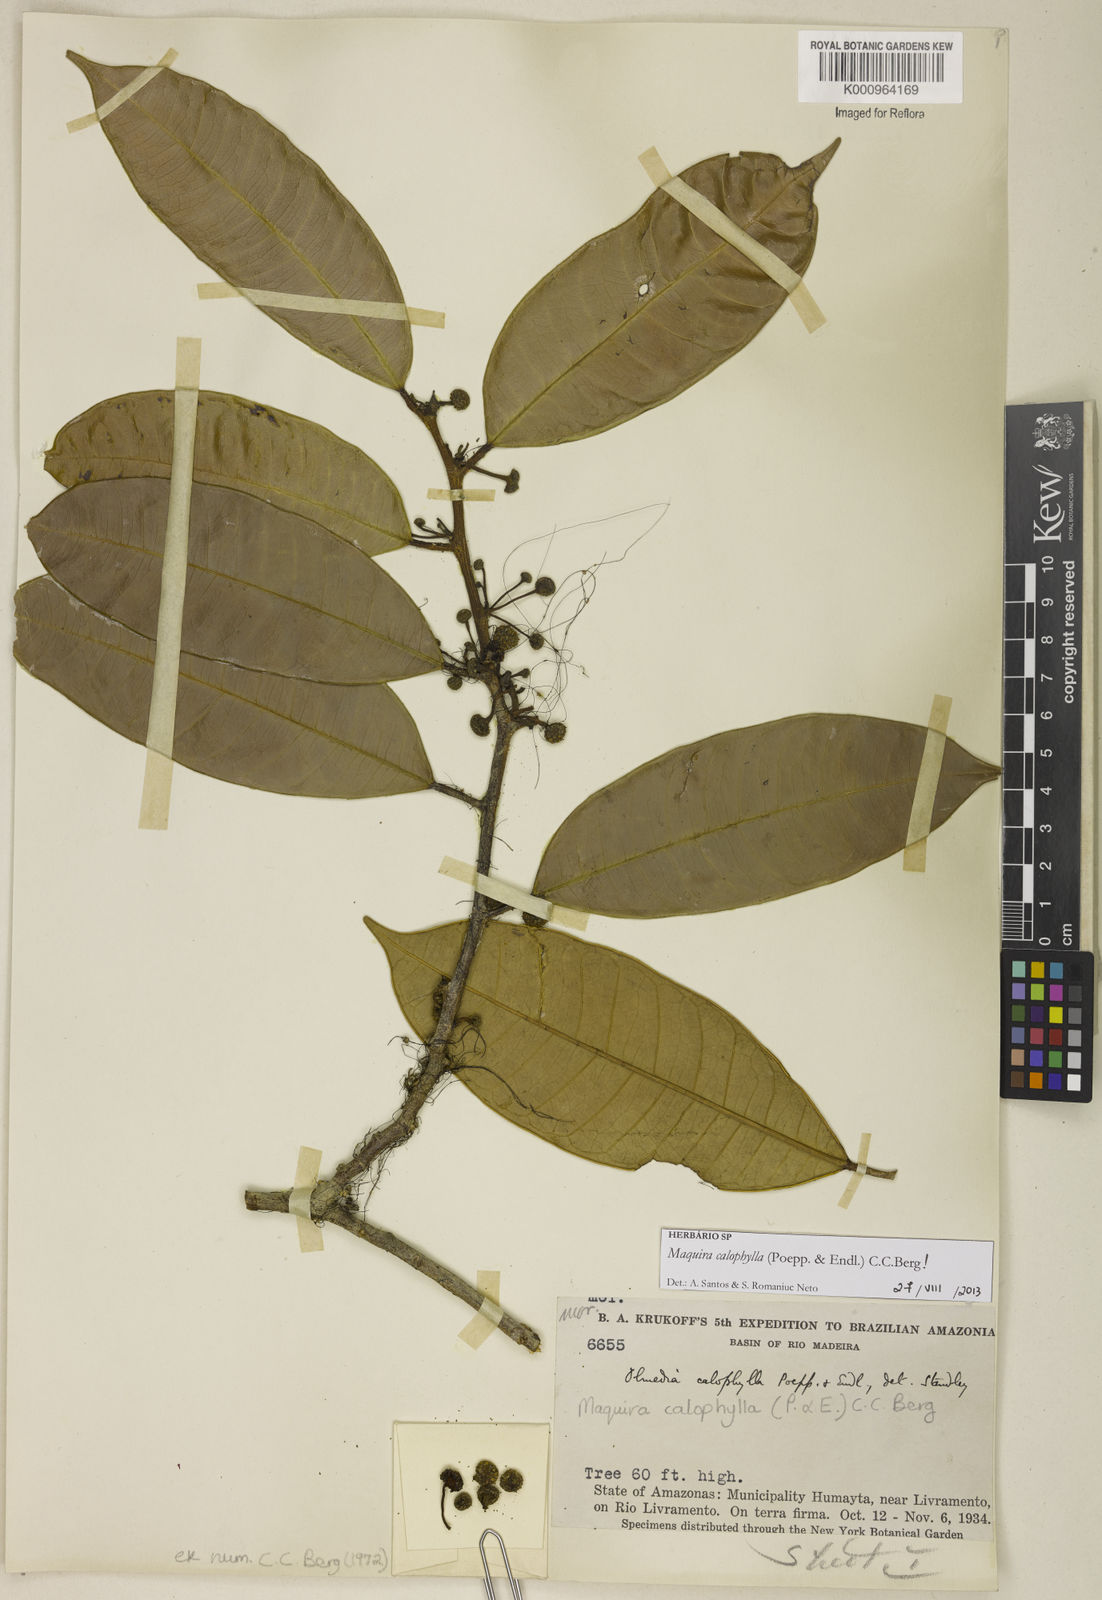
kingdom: Plantae
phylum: Tracheophyta
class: Magnoliopsida
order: Rosales
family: Moraceae
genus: Maquira
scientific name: Maquira calophylla
